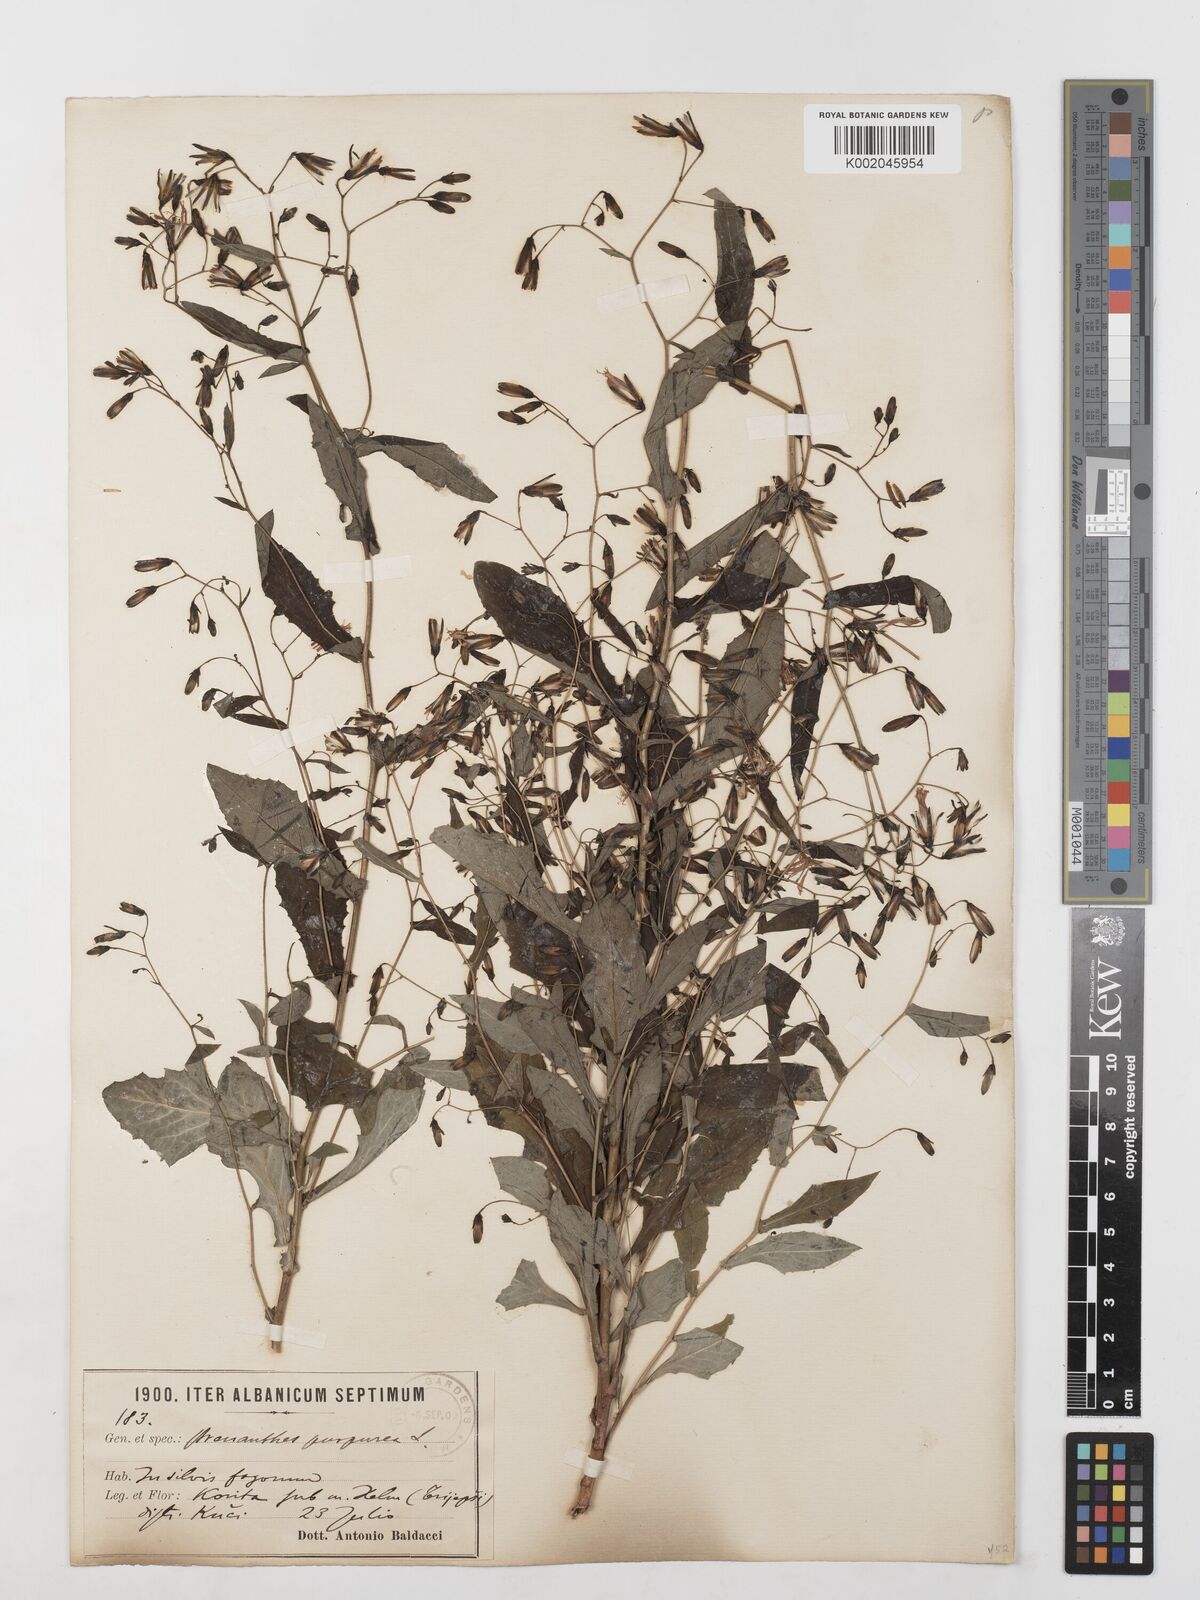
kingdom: Plantae
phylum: Tracheophyta
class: Magnoliopsida
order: Asterales
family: Asteraceae
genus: Prenanthes
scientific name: Prenanthes purpurea
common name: Purple lettuce
